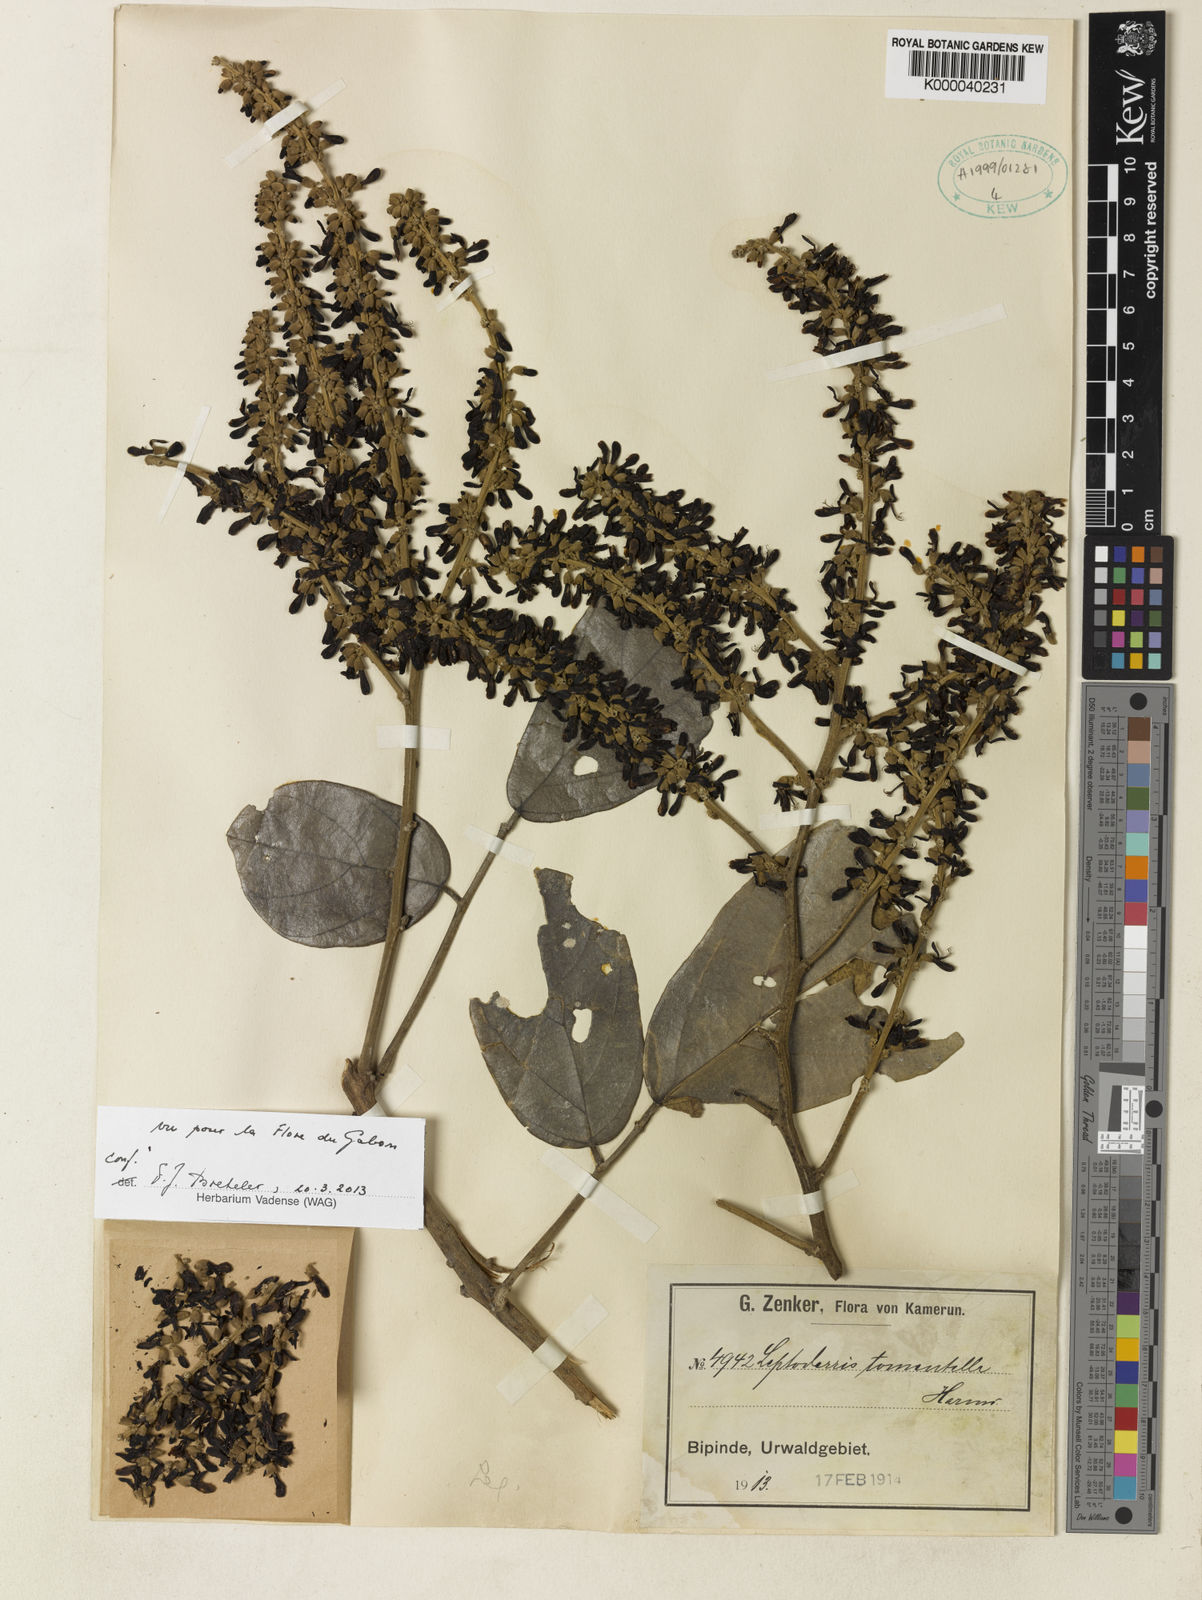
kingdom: Plantae
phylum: Tracheophyta
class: Magnoliopsida
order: Fabales
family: Fabaceae
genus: Leptoderris
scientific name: Leptoderris tomentella
